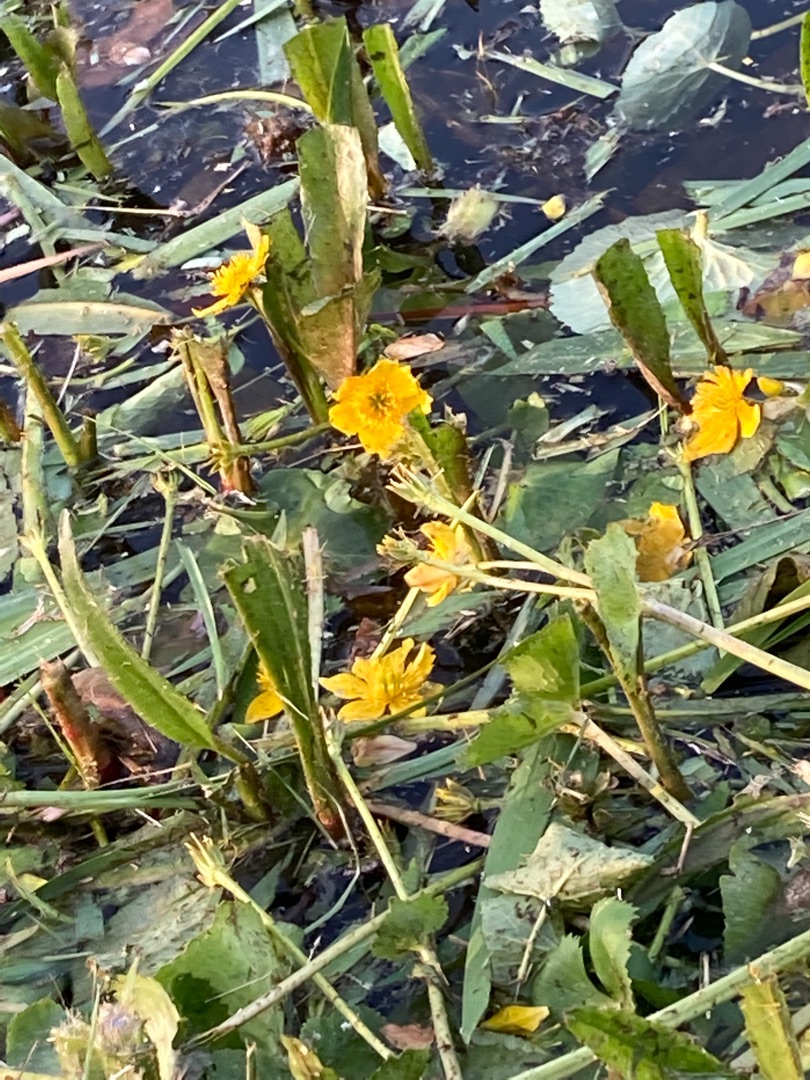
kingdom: Plantae
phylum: Tracheophyta
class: Magnoliopsida
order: Ranunculales
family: Ranunculaceae
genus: Caltha
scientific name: Caltha palustris
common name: Eng-kabbeleje
